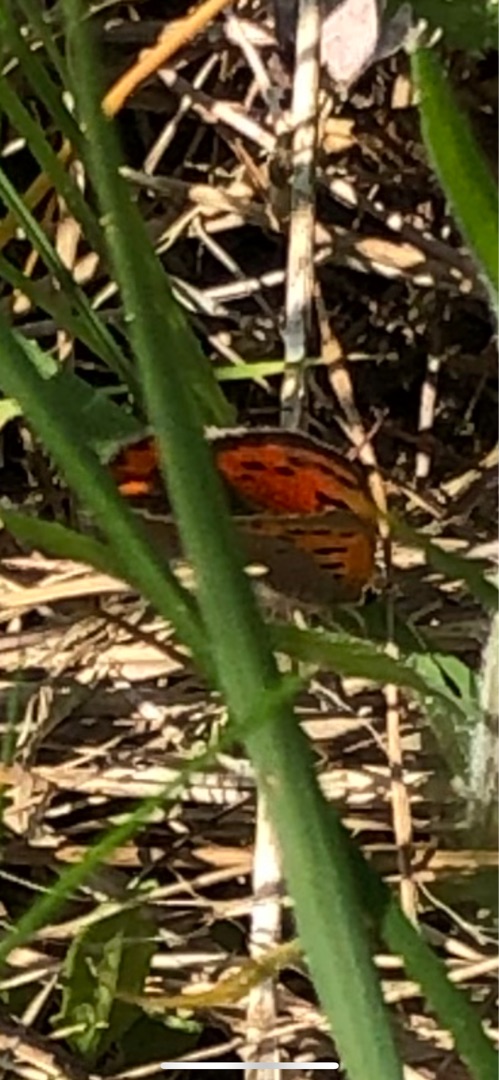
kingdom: Animalia
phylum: Arthropoda
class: Insecta
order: Lepidoptera
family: Lycaenidae
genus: Lycaena
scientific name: Lycaena phlaeas
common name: Lille ildfugl
